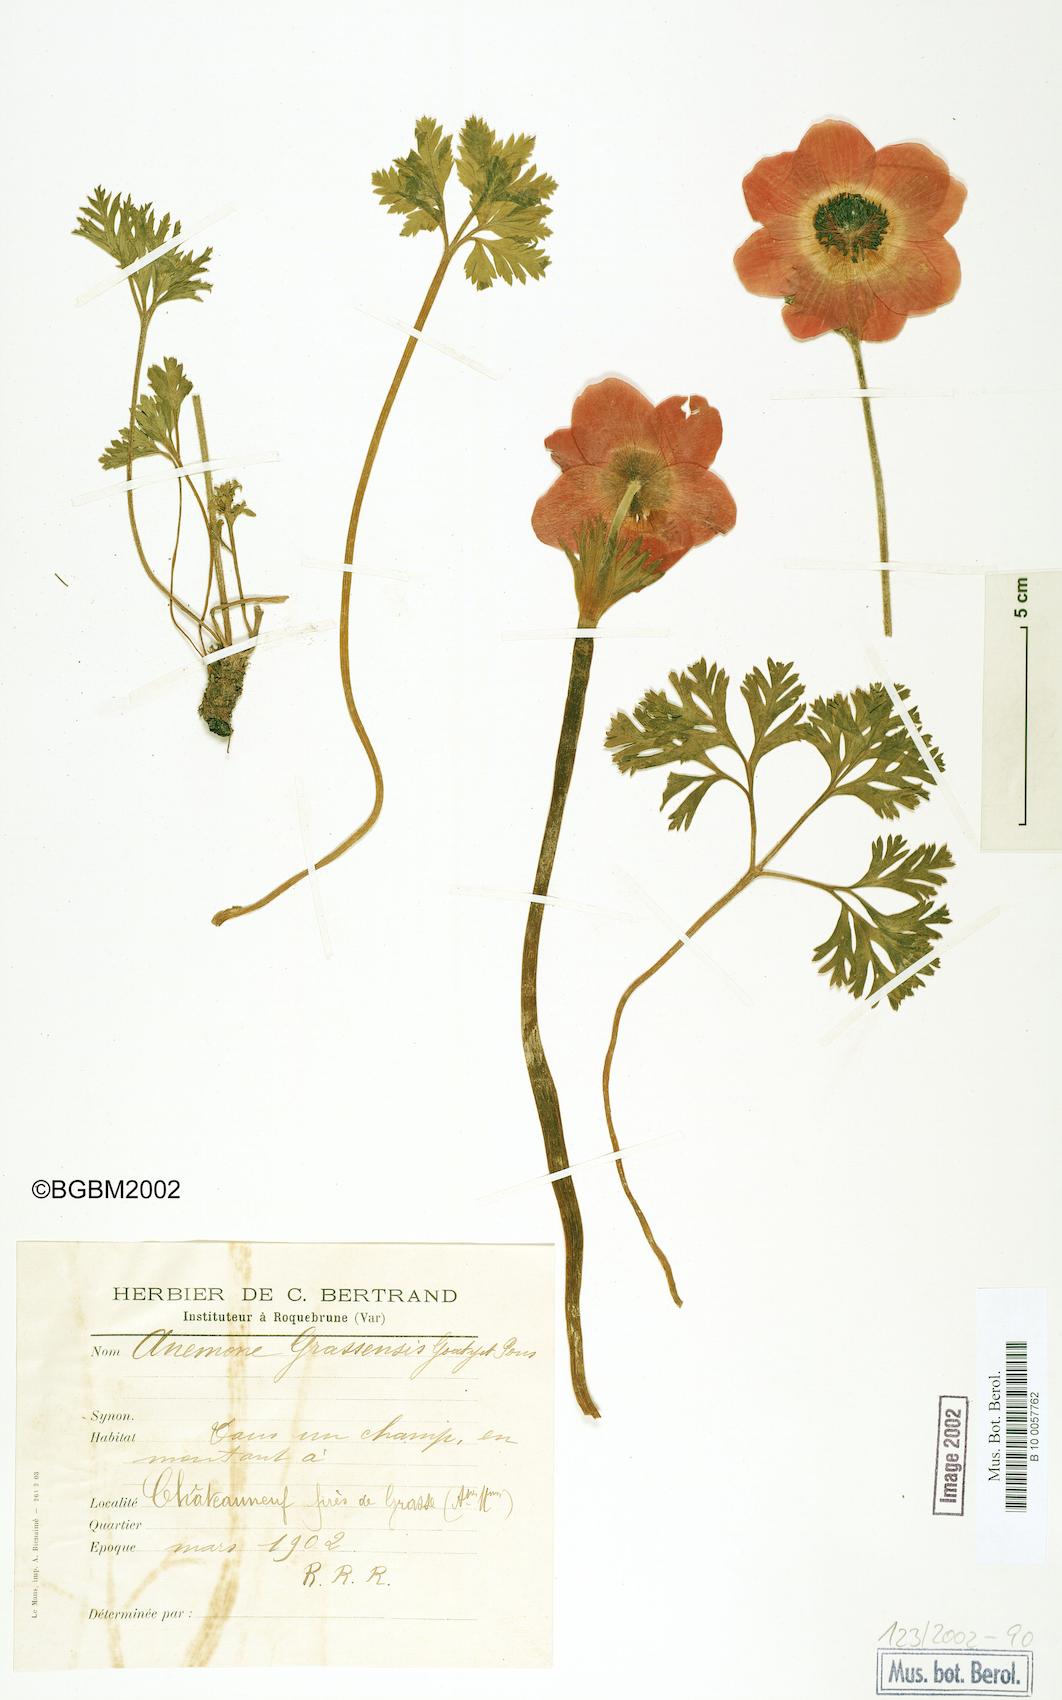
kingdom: Plantae
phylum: Tracheophyta
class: Magnoliopsida
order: Ranunculales
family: Ranunculaceae
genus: Anemone
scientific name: Anemone coronaria
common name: Poppy anemone
